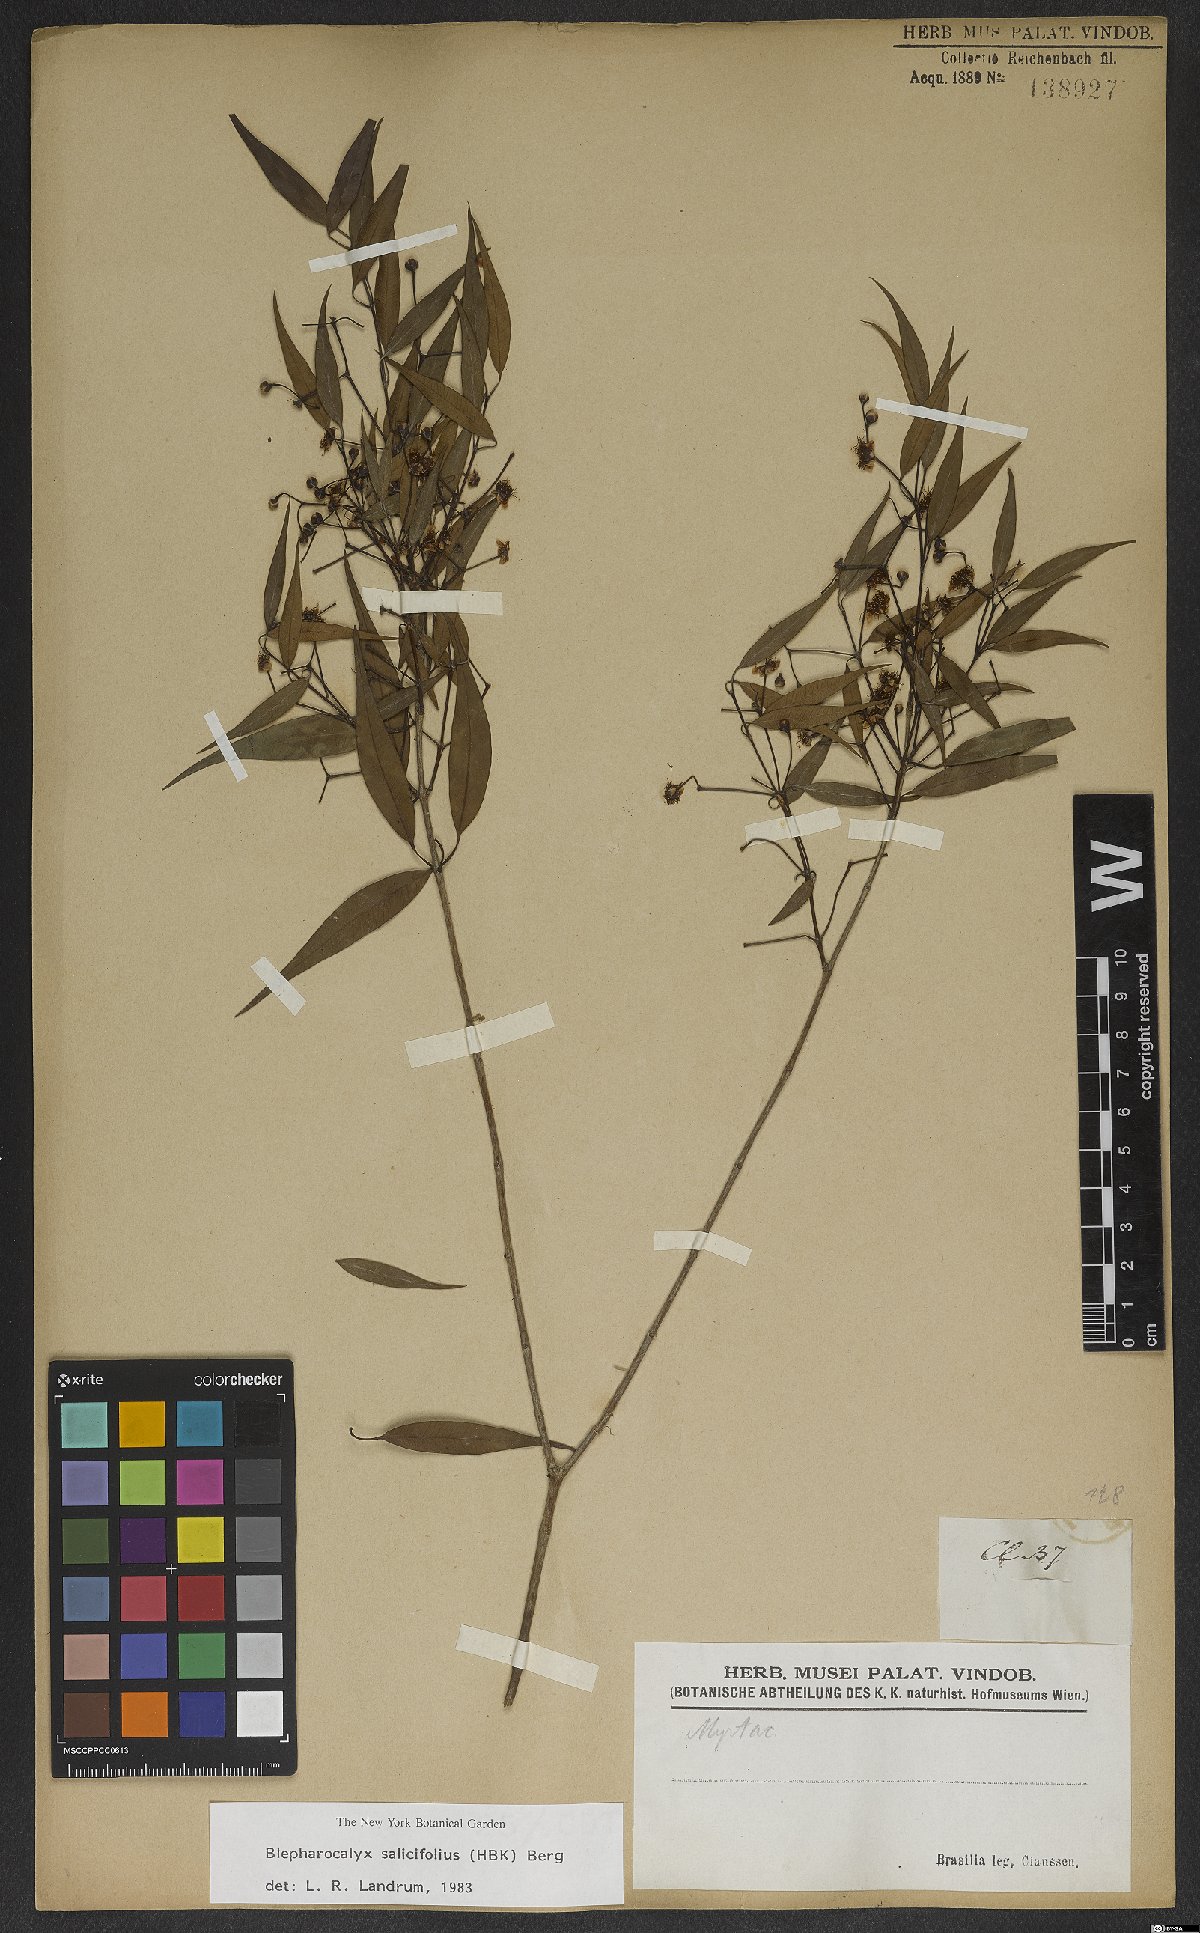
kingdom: Plantae
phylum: Tracheophyta
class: Magnoliopsida
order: Myrtales
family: Myrtaceae
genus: Blepharocalyx
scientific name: Blepharocalyx salicifolius
